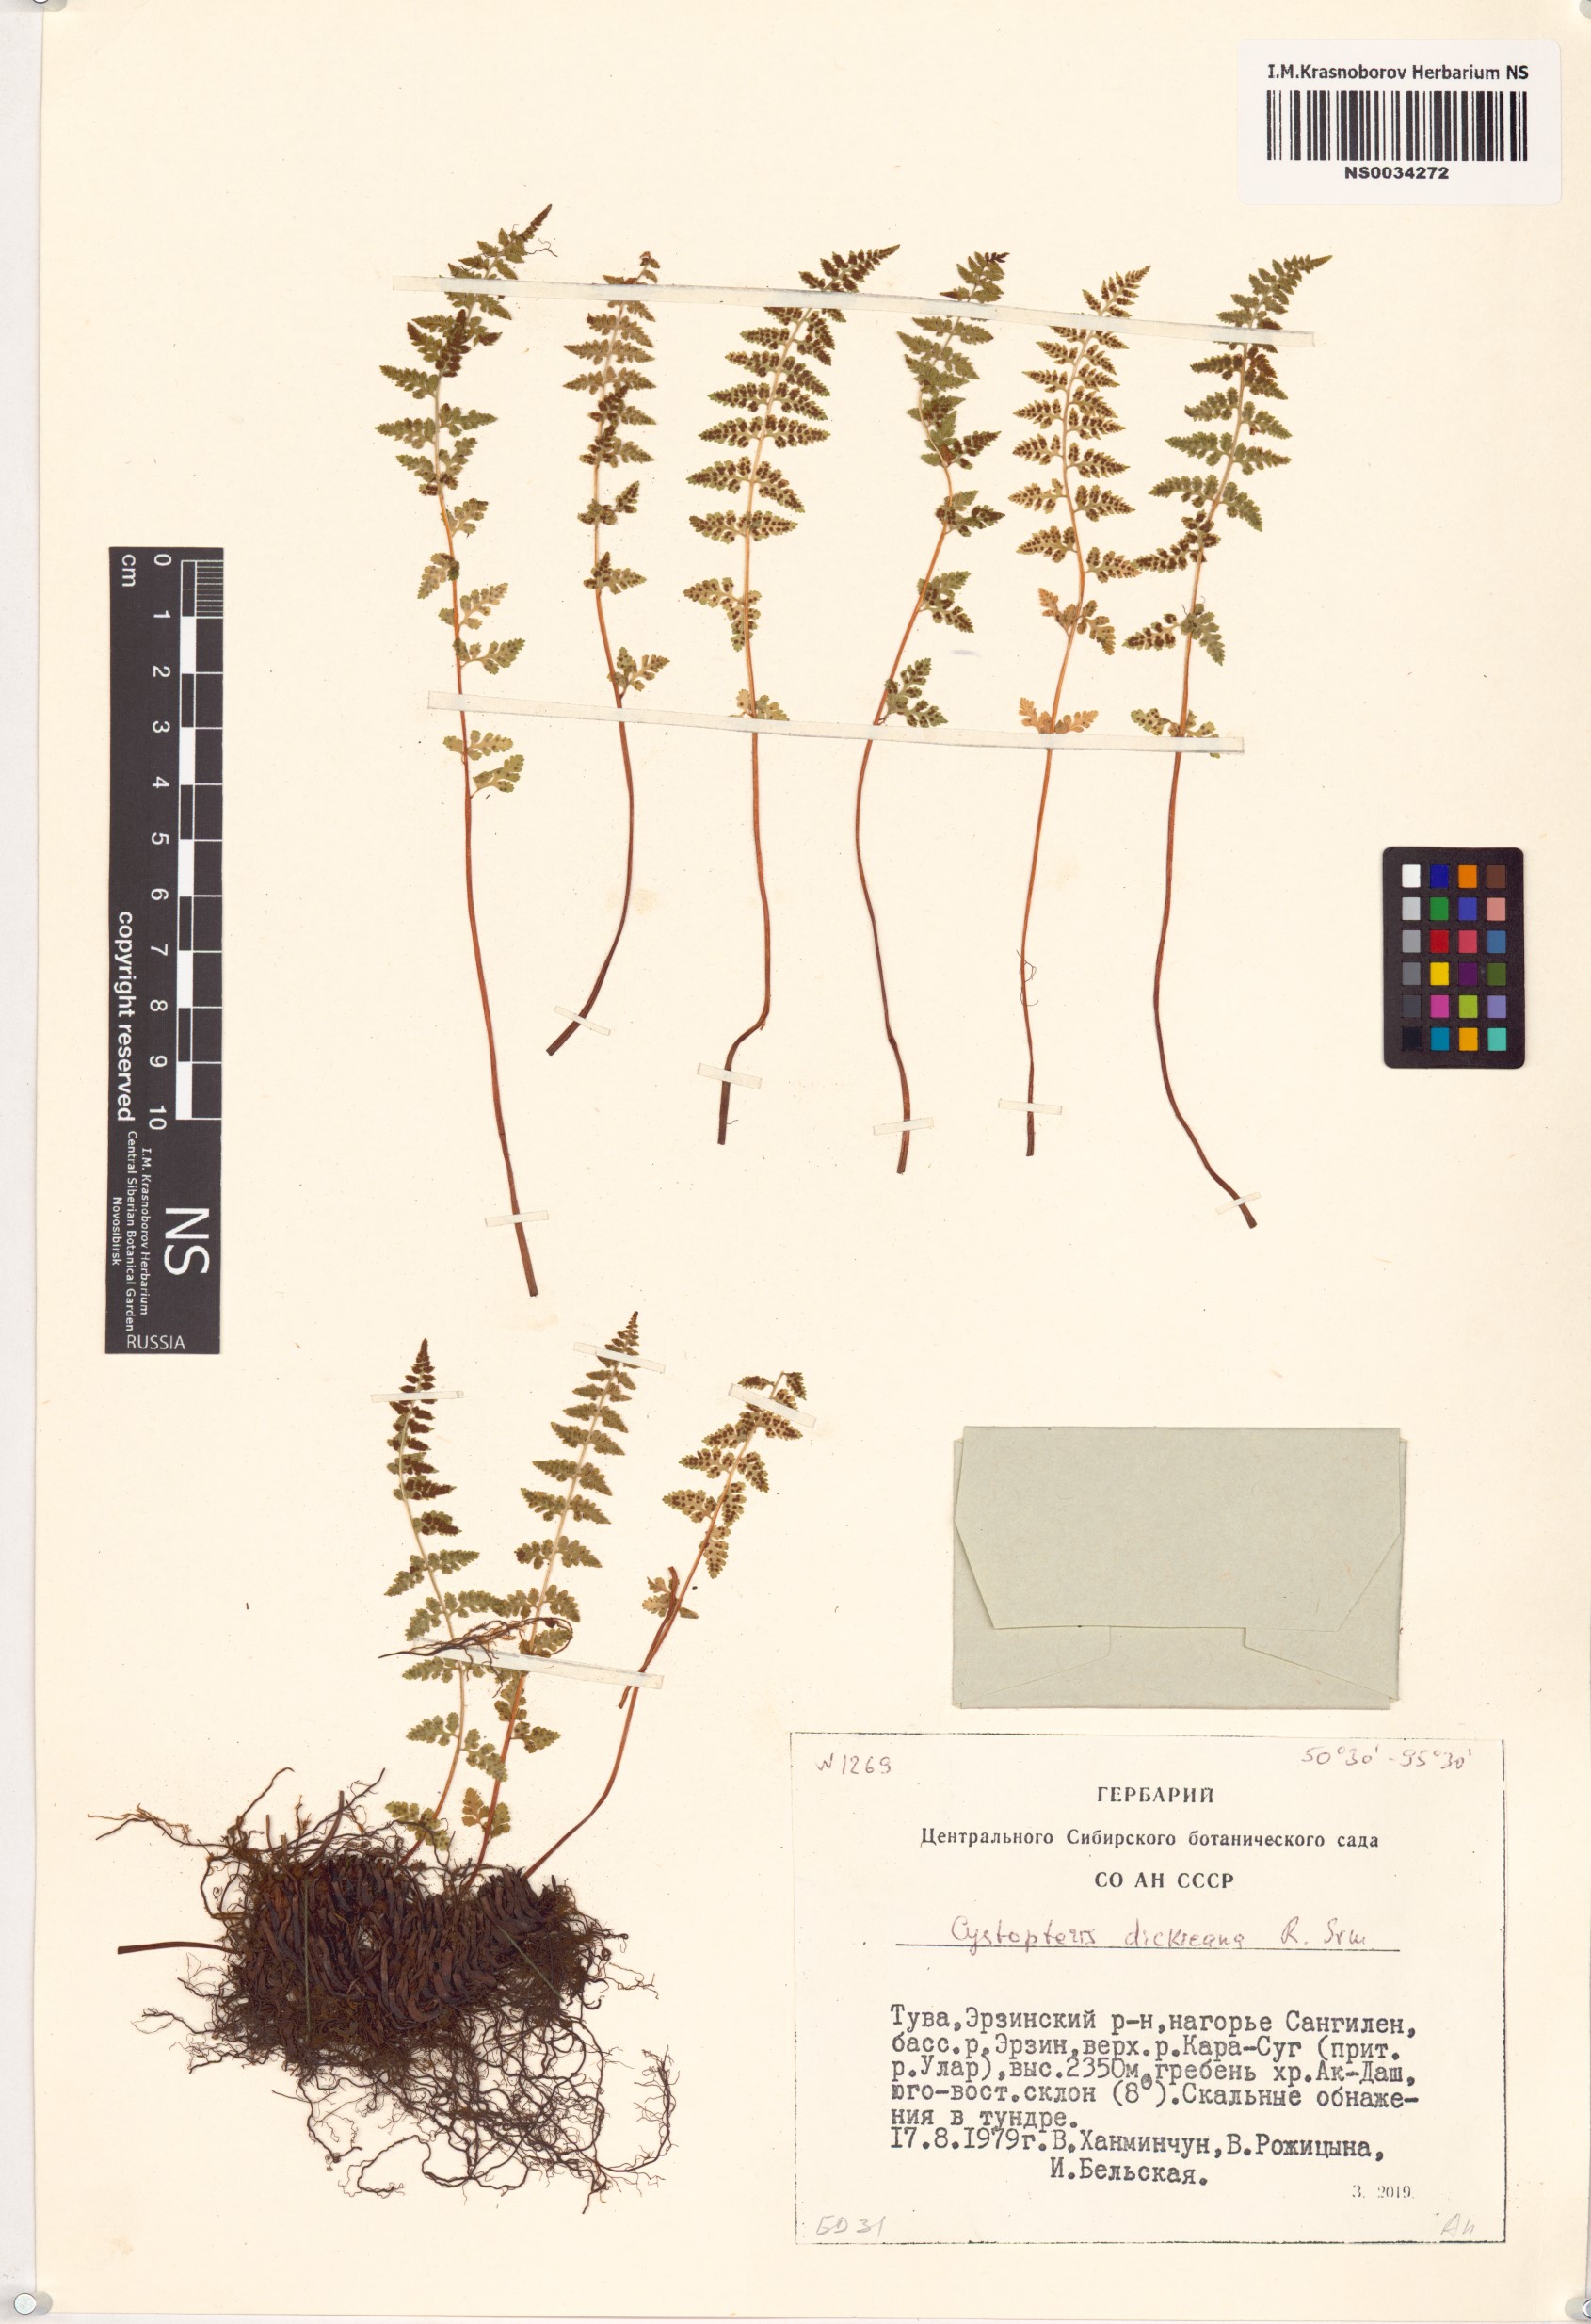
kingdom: Plantae
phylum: Tracheophyta
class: Polypodiopsida
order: Polypodiales
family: Cystopteridaceae
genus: Cystopteris
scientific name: Cystopteris dickieana
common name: Dickie's bladder-fern
